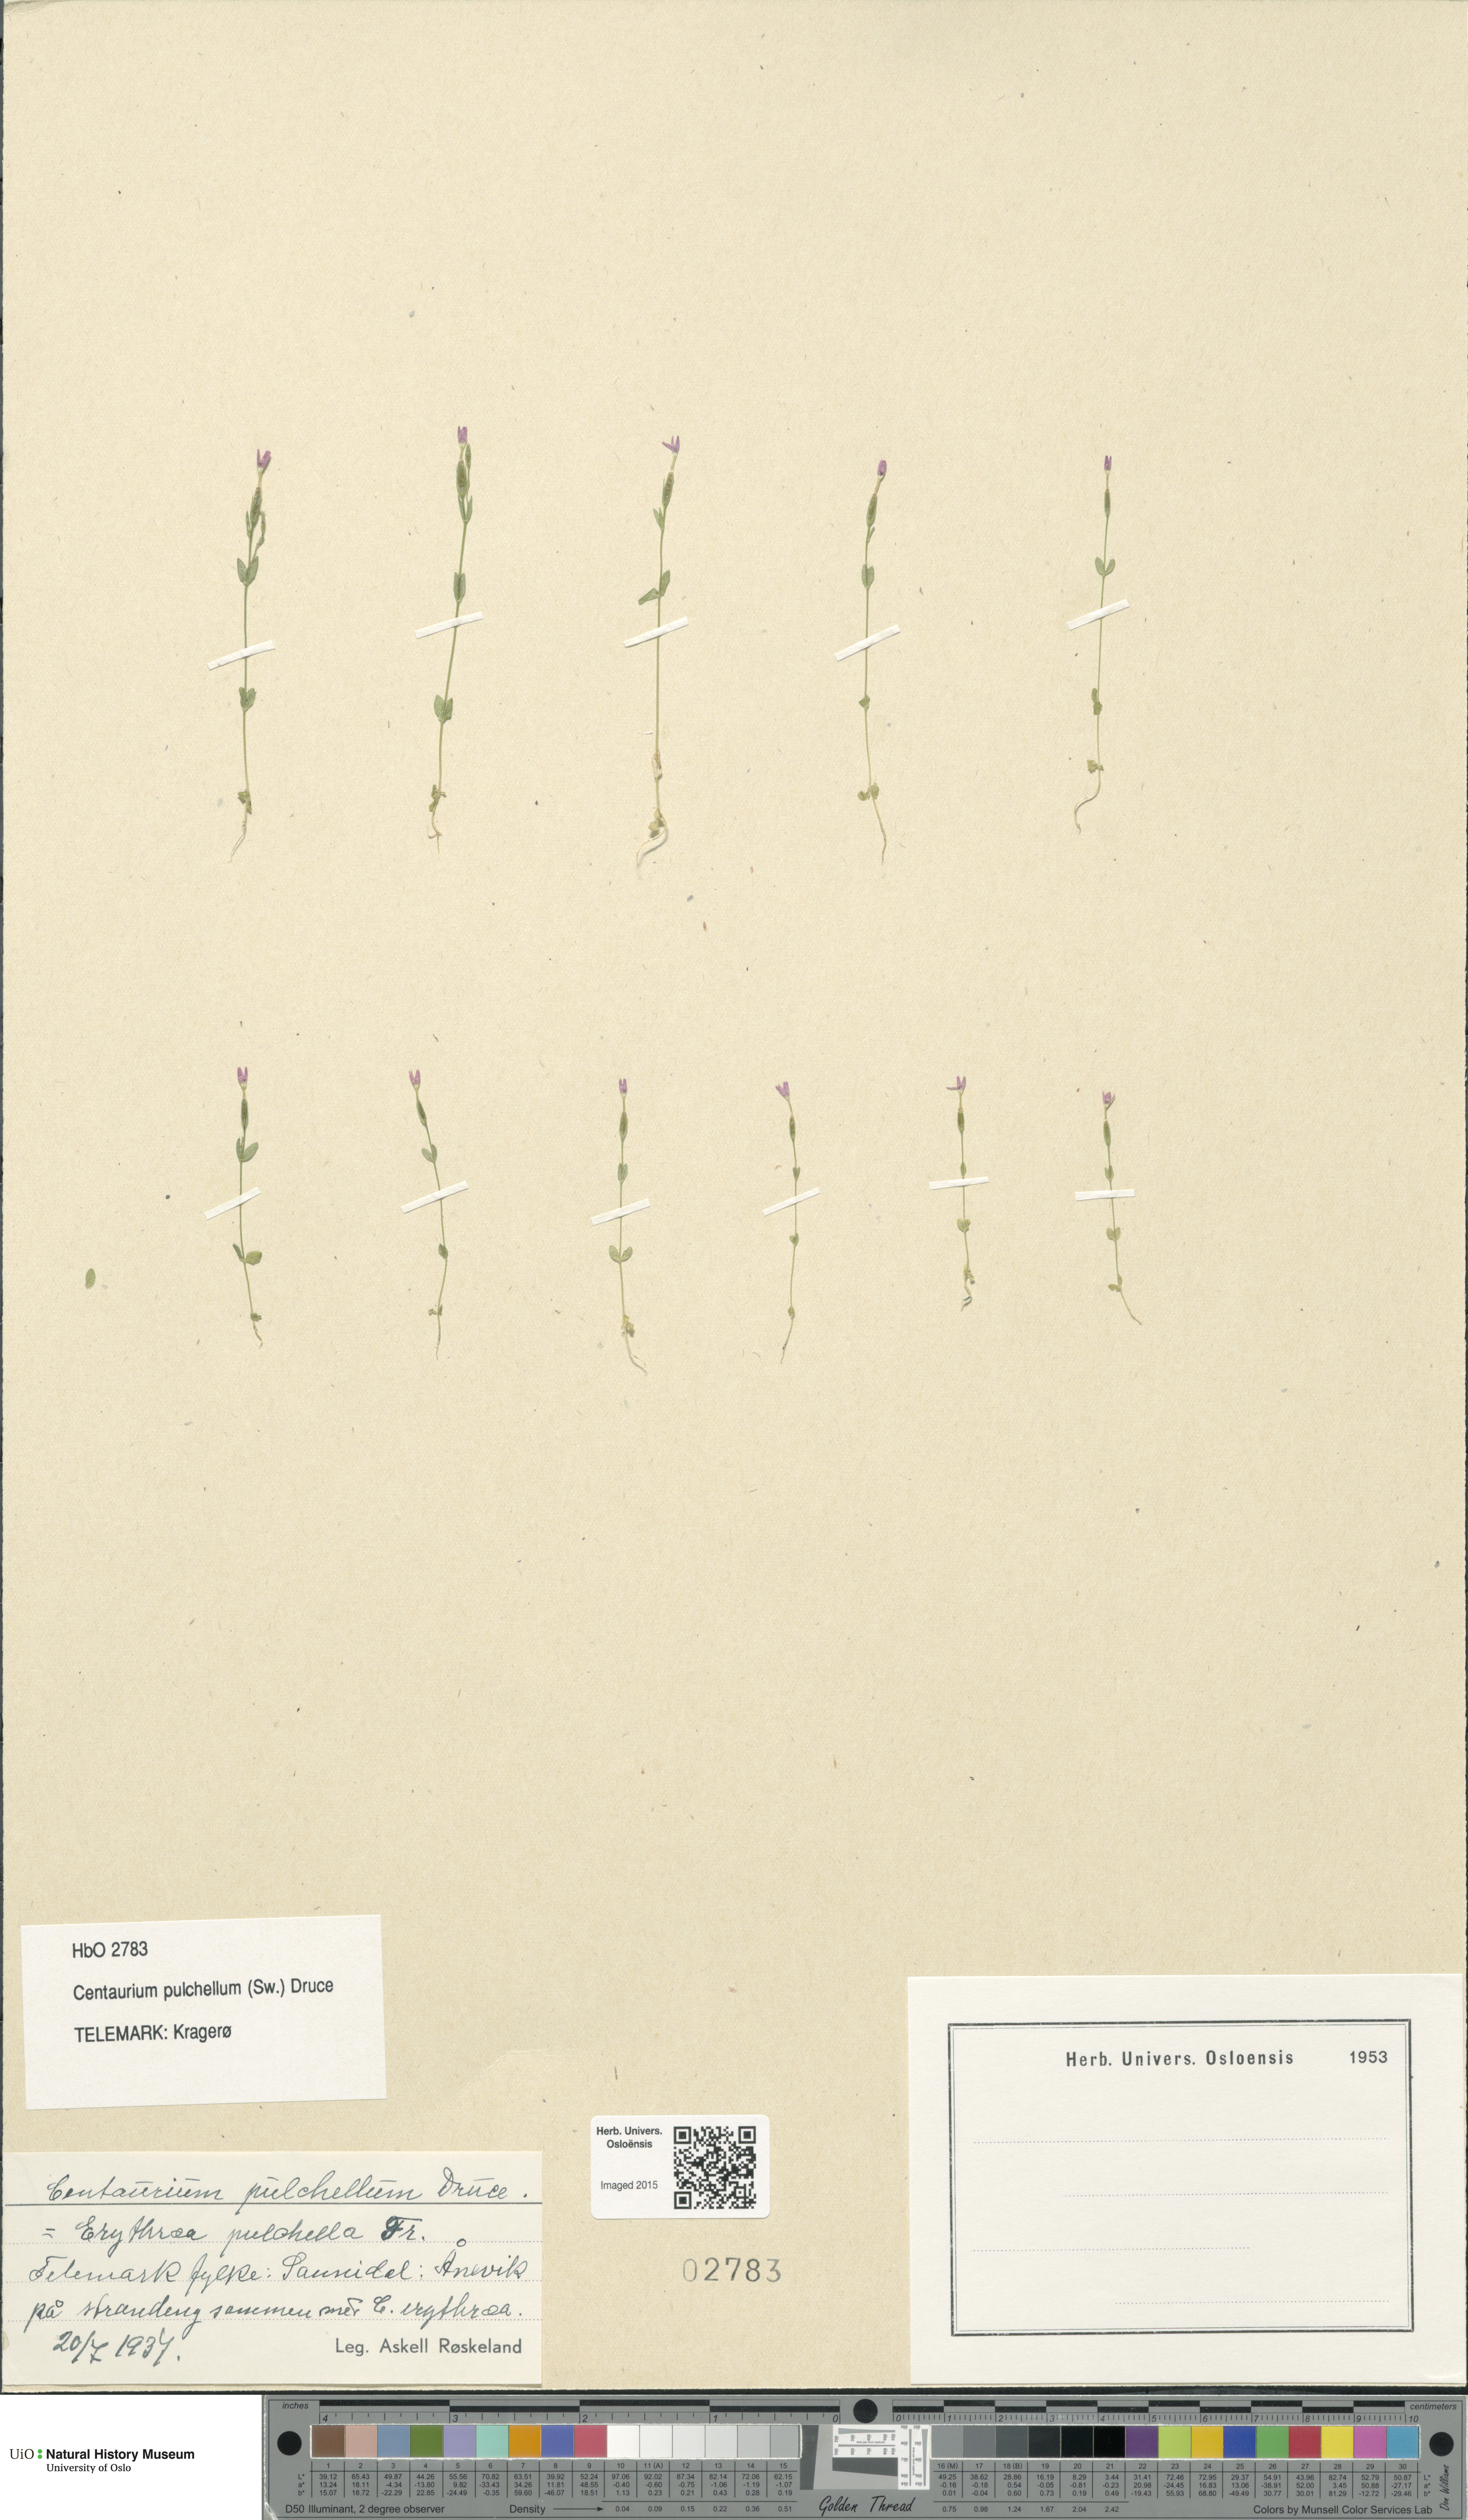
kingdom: Plantae
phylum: Tracheophyta
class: Magnoliopsida
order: Gentianales
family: Gentianaceae
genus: Centaurium
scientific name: Centaurium pulchellum
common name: Lesser centaury
